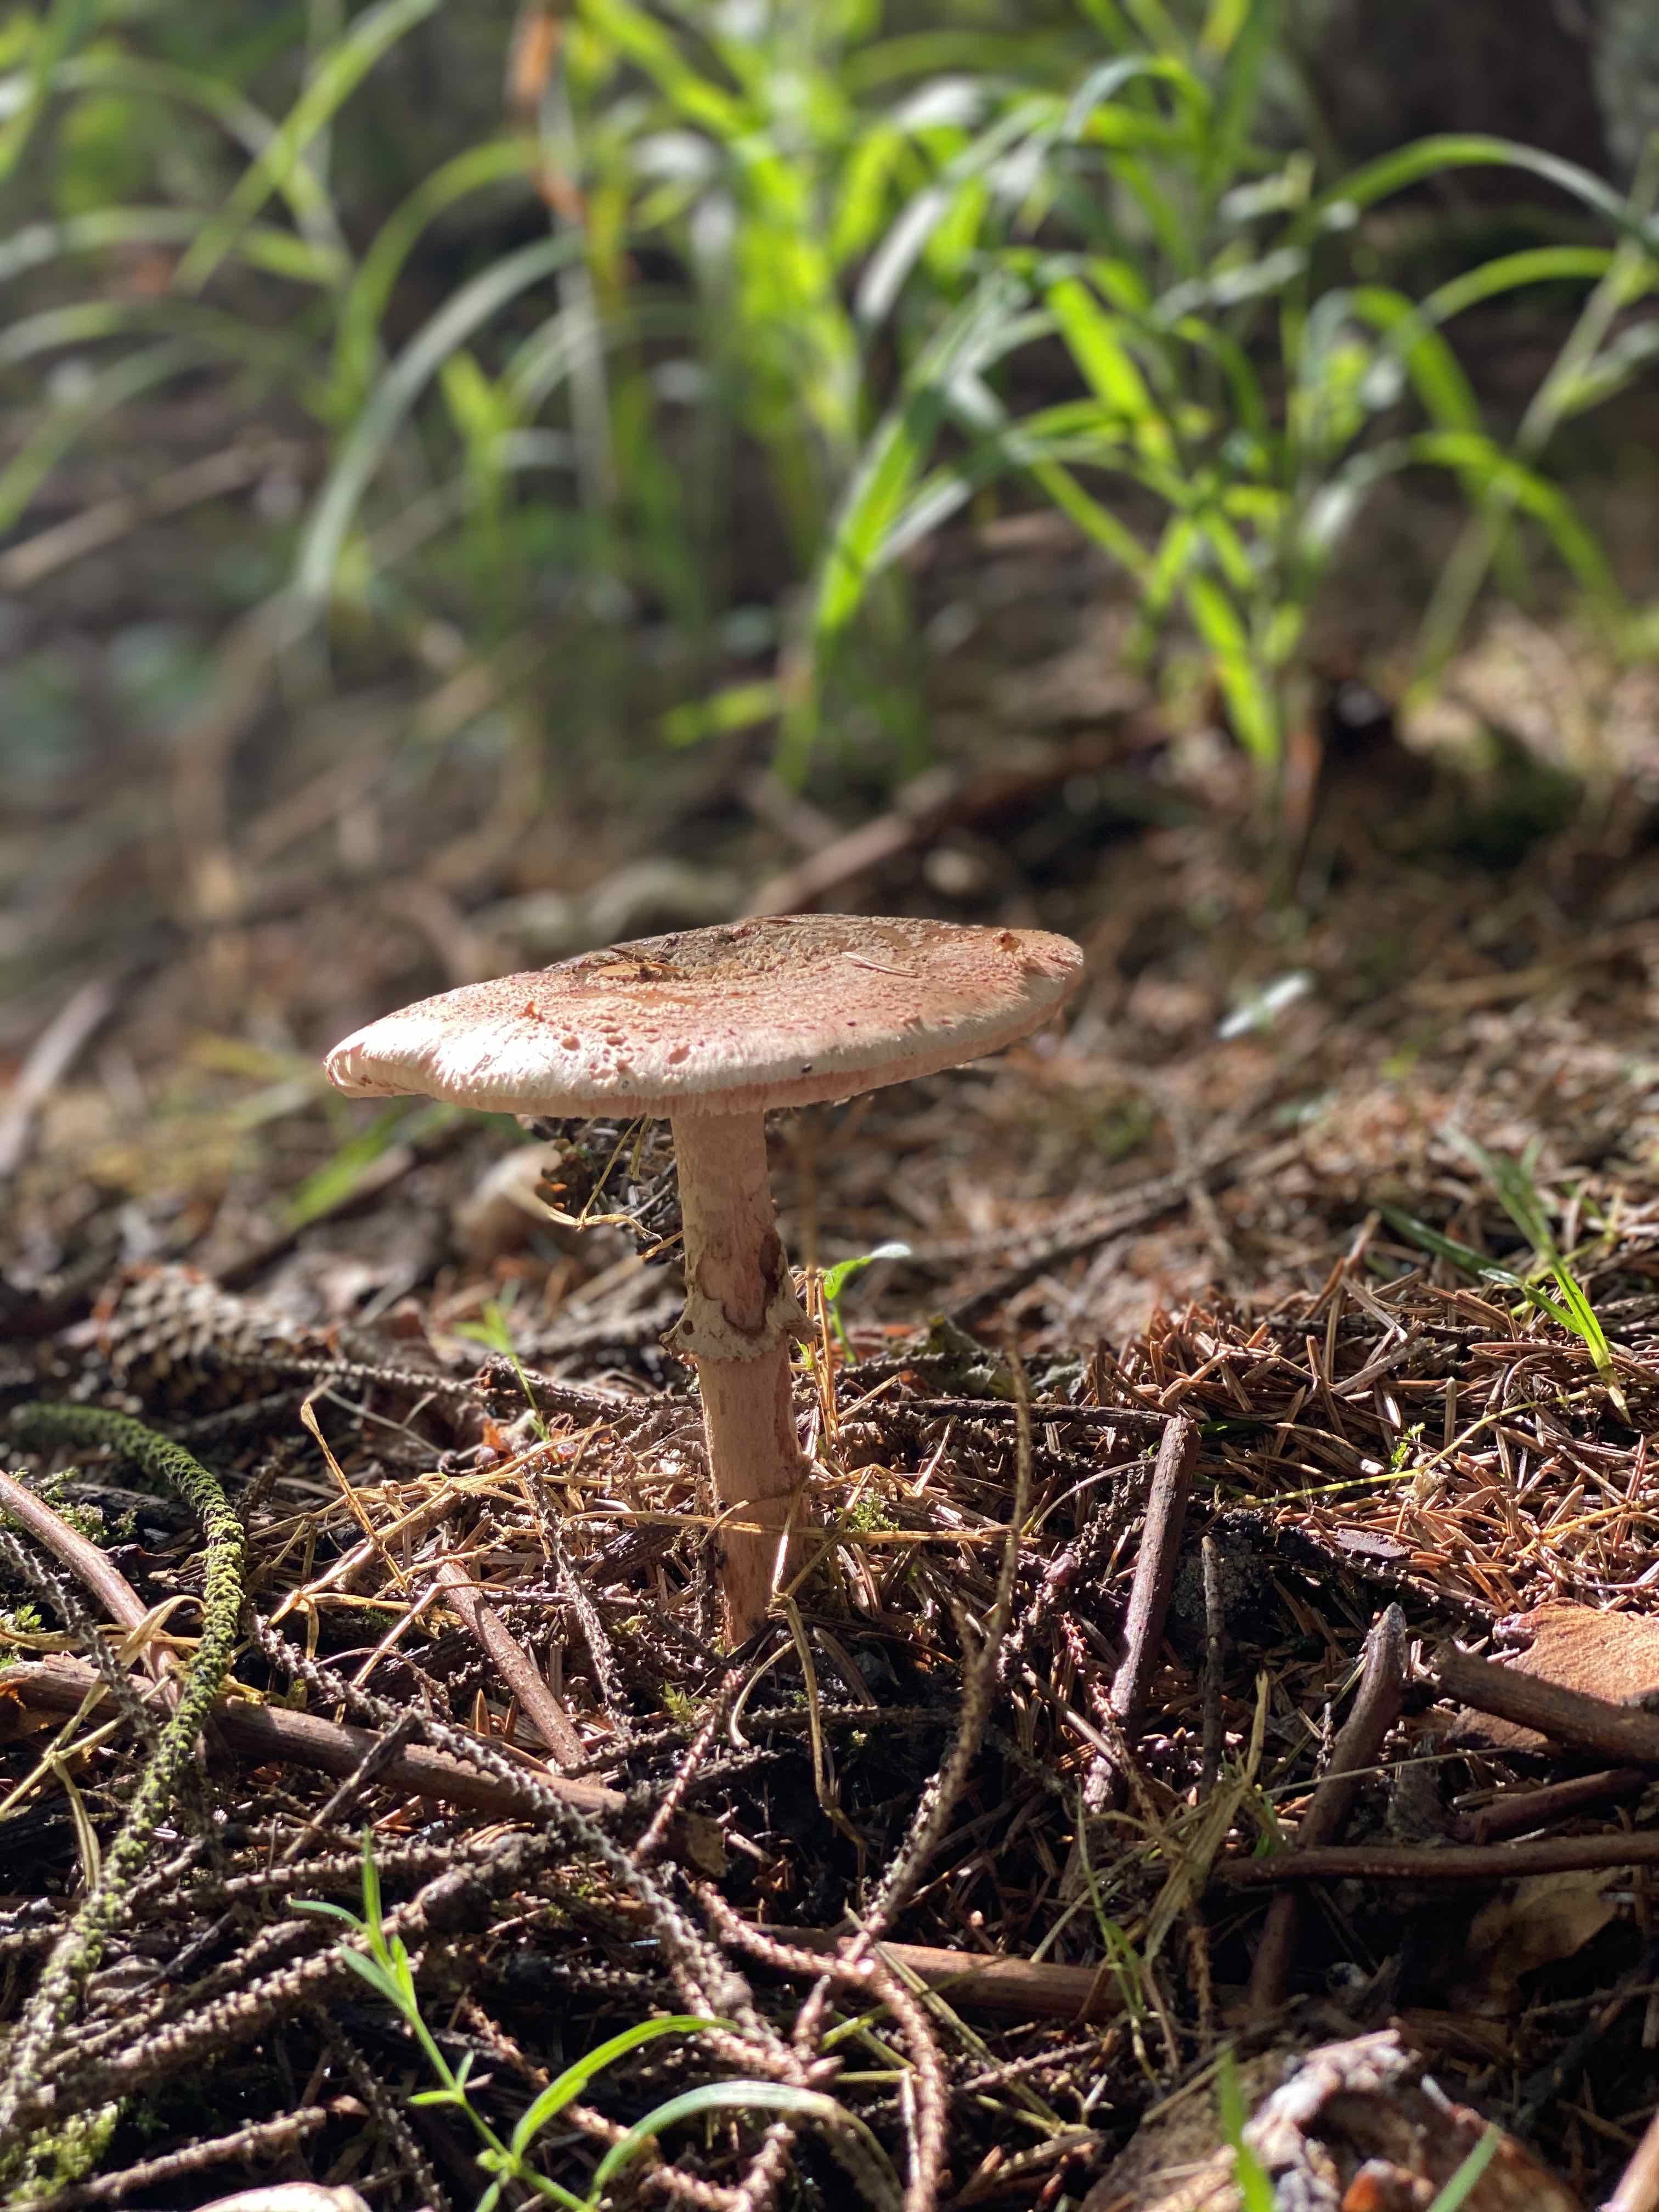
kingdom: Fungi
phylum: Basidiomycota
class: Agaricomycetes
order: Agaricales
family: Amanitaceae
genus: Amanita
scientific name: Amanita rubescens
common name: rødmende fluesvamp
